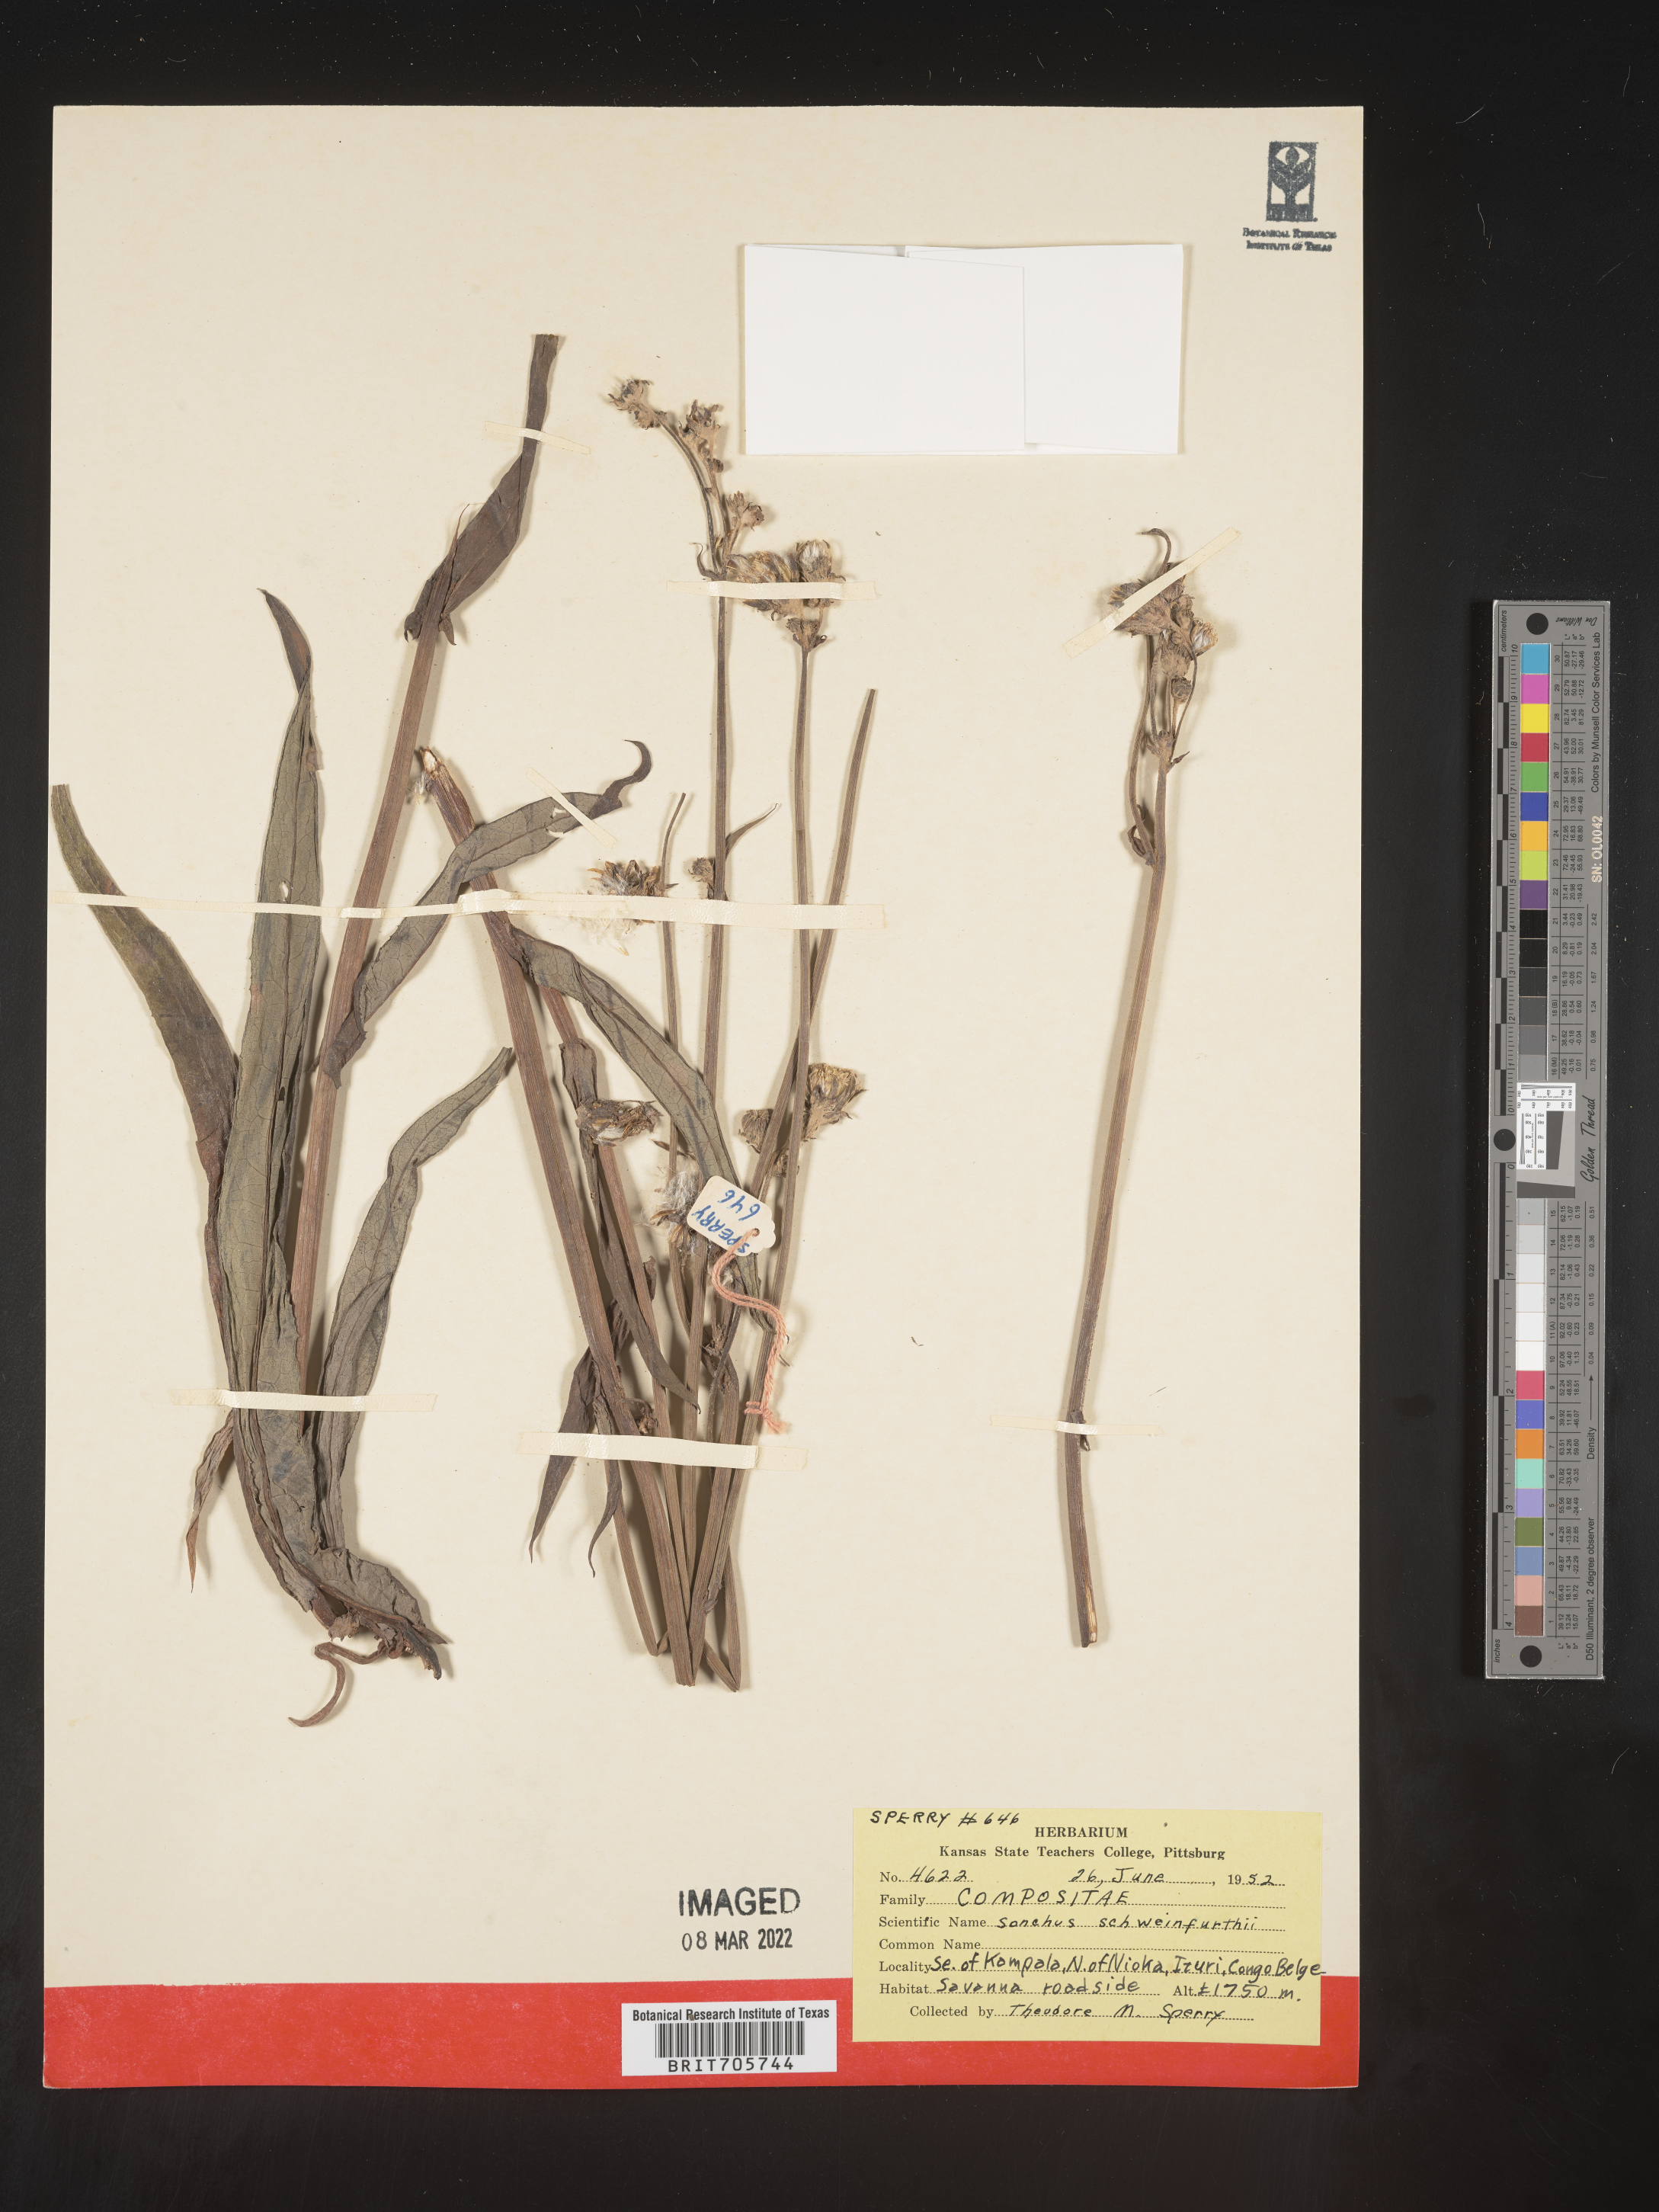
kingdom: Plantae
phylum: Tracheophyta
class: Magnoliopsida
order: Asterales
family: Asteraceae
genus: Sonchus
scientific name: Sonchus
